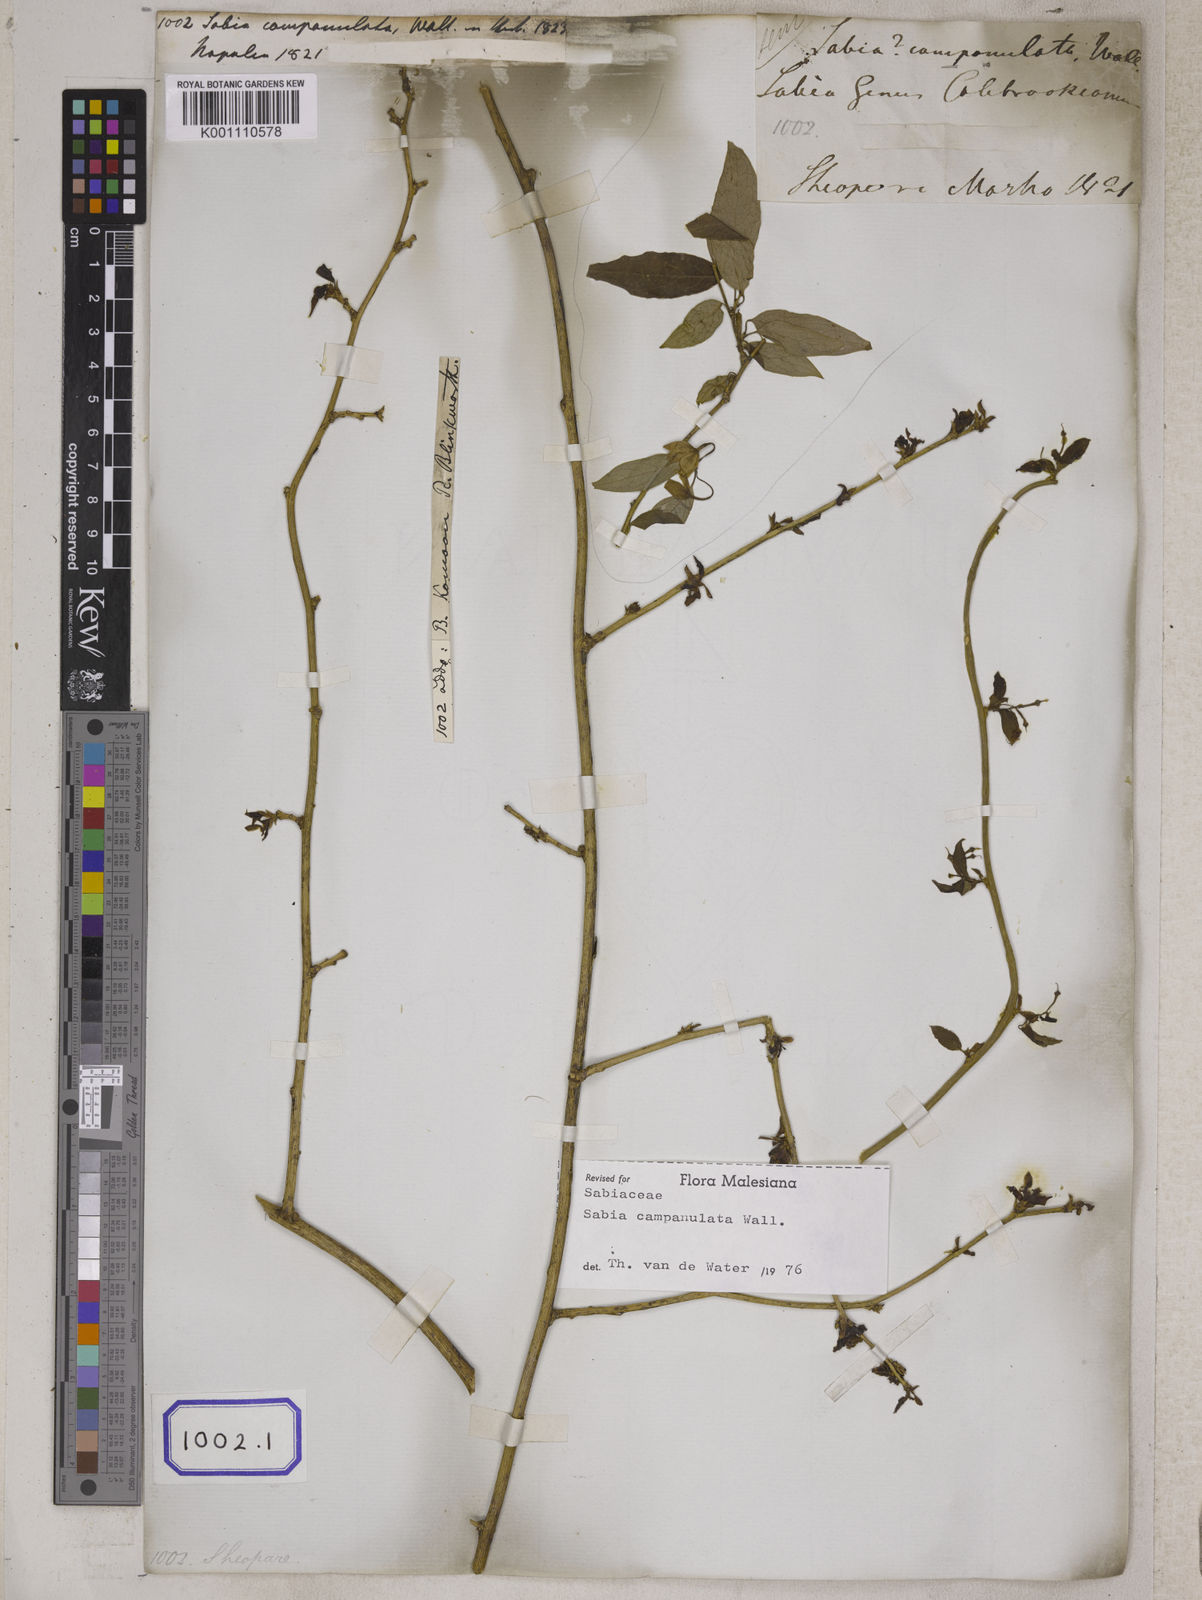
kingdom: Plantae
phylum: Tracheophyta
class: Magnoliopsida
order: Proteales
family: Sabiaceae
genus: Sabia
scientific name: Sabia campanulata
